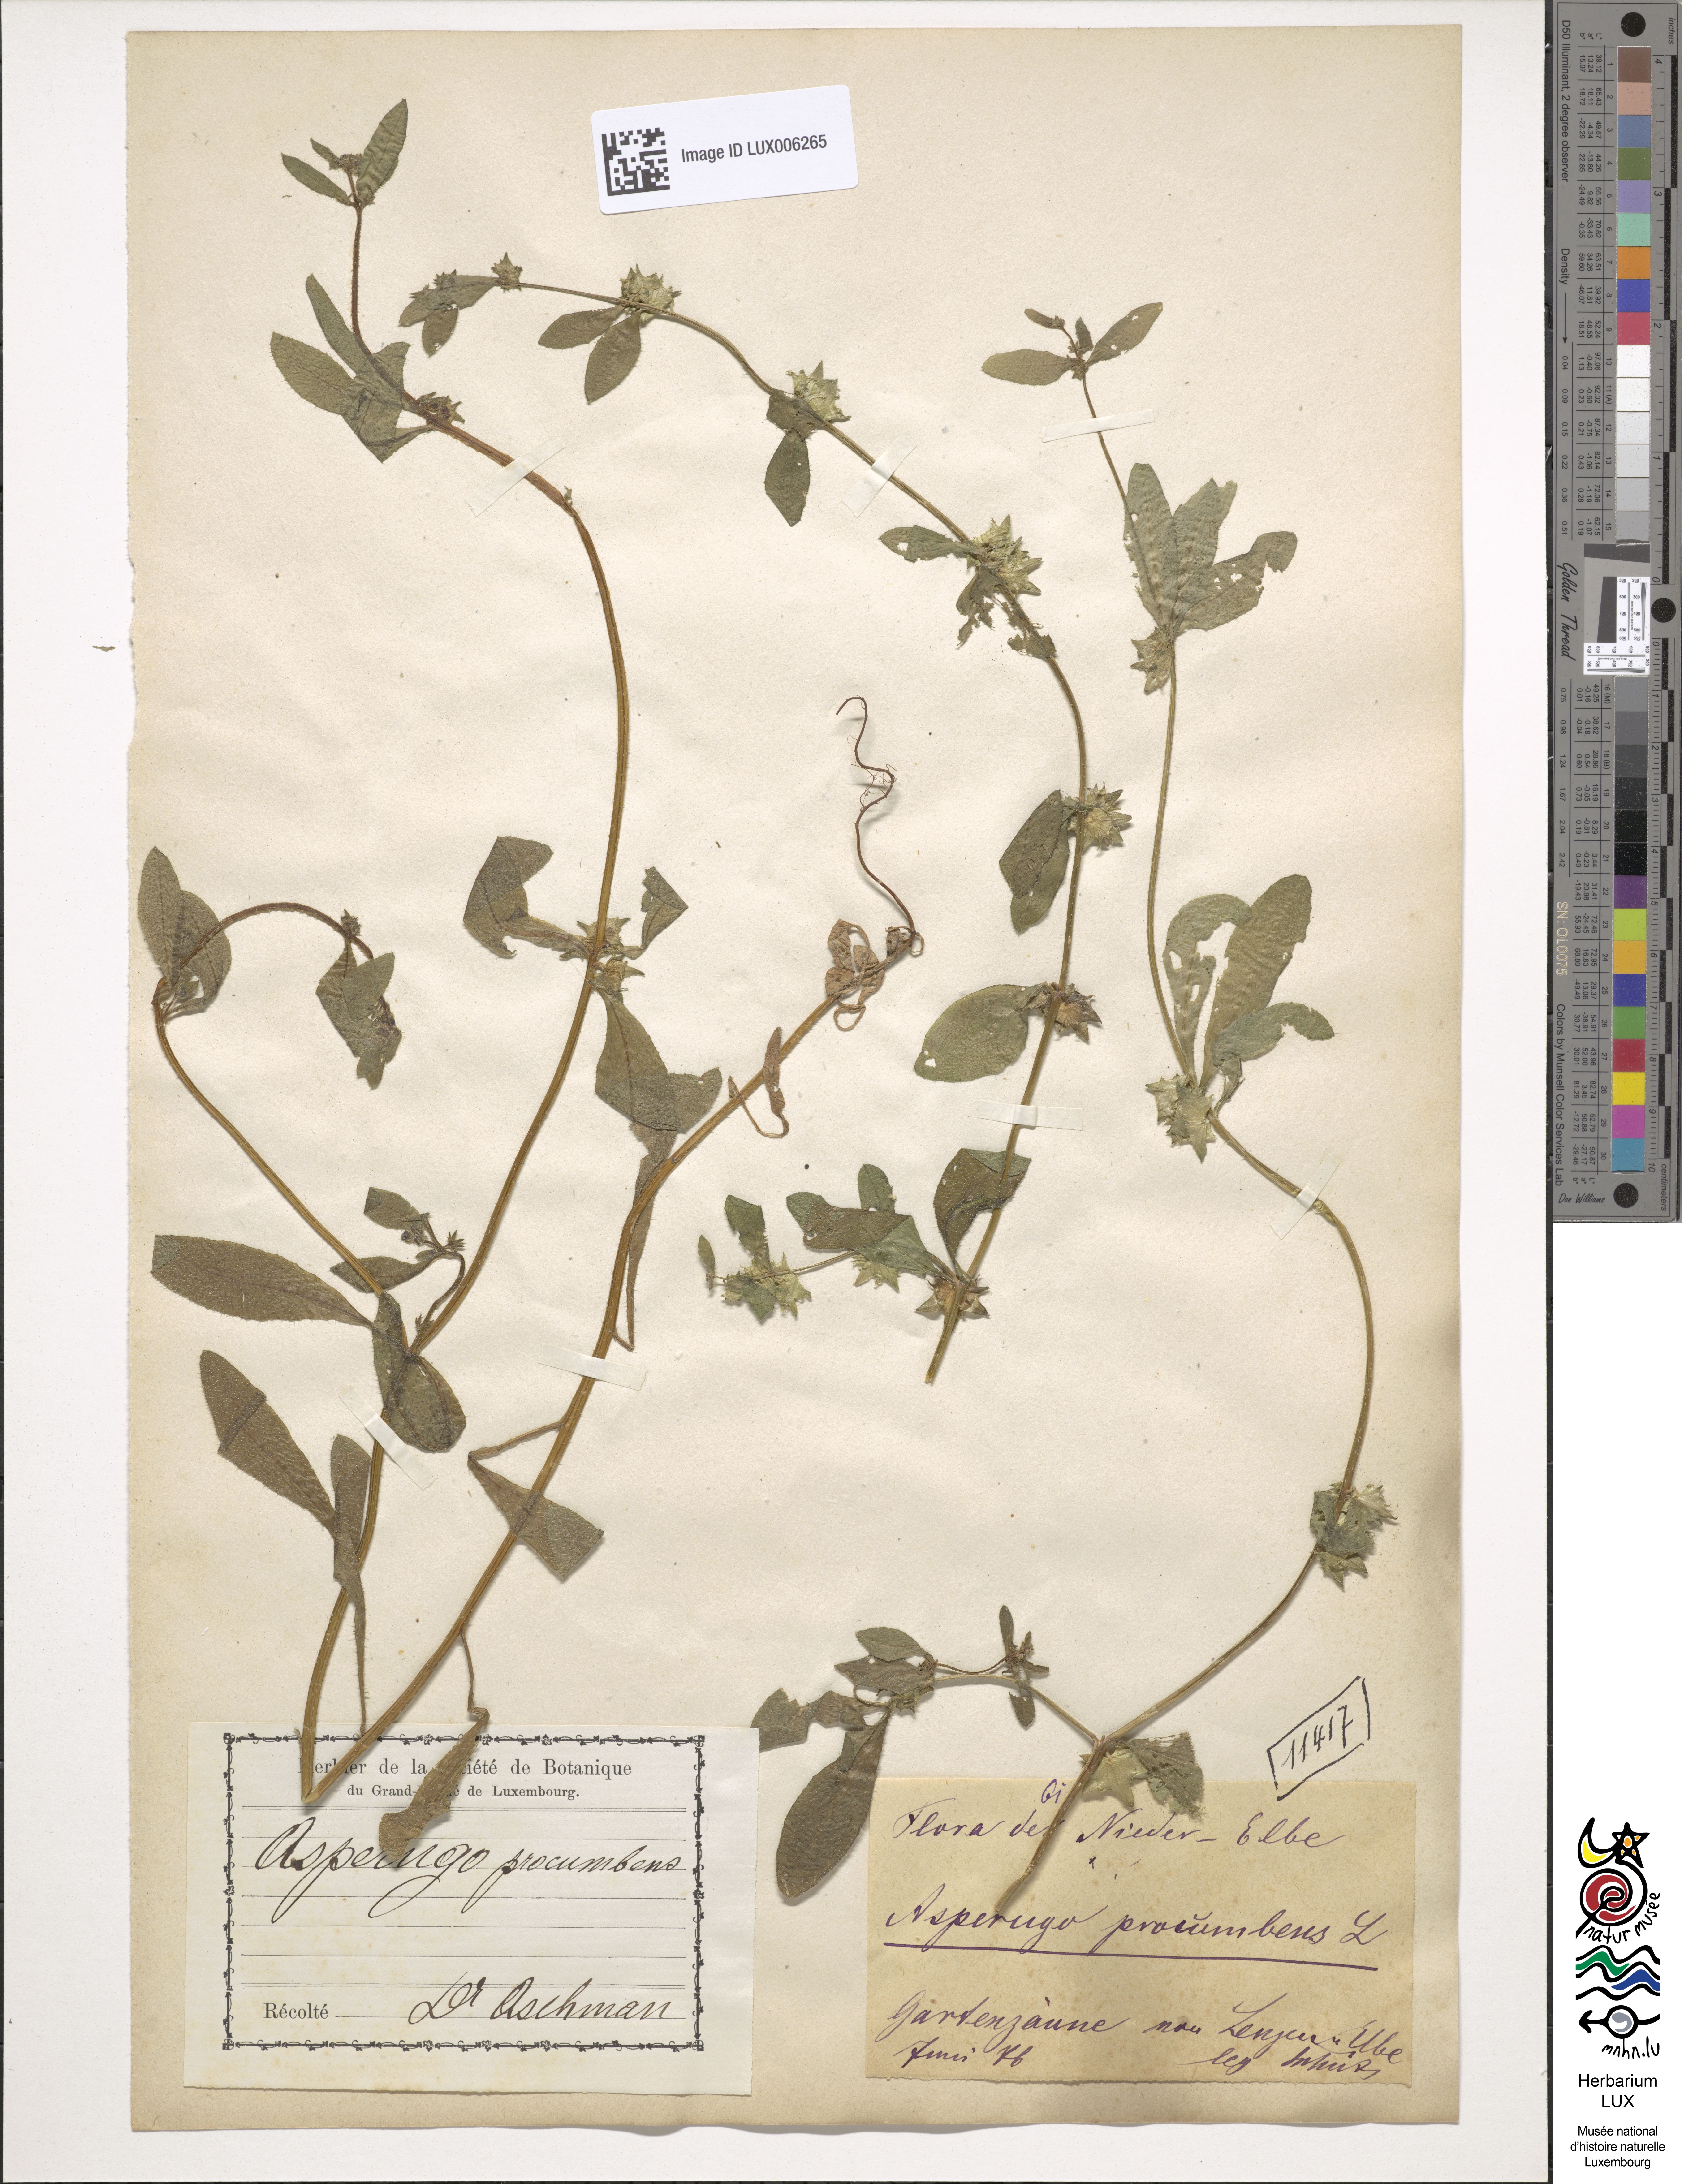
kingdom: Plantae
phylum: Tracheophyta
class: Magnoliopsida
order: Boraginales
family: Boraginaceae
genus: Asperugo
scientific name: Asperugo procumbens
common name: Madwort
